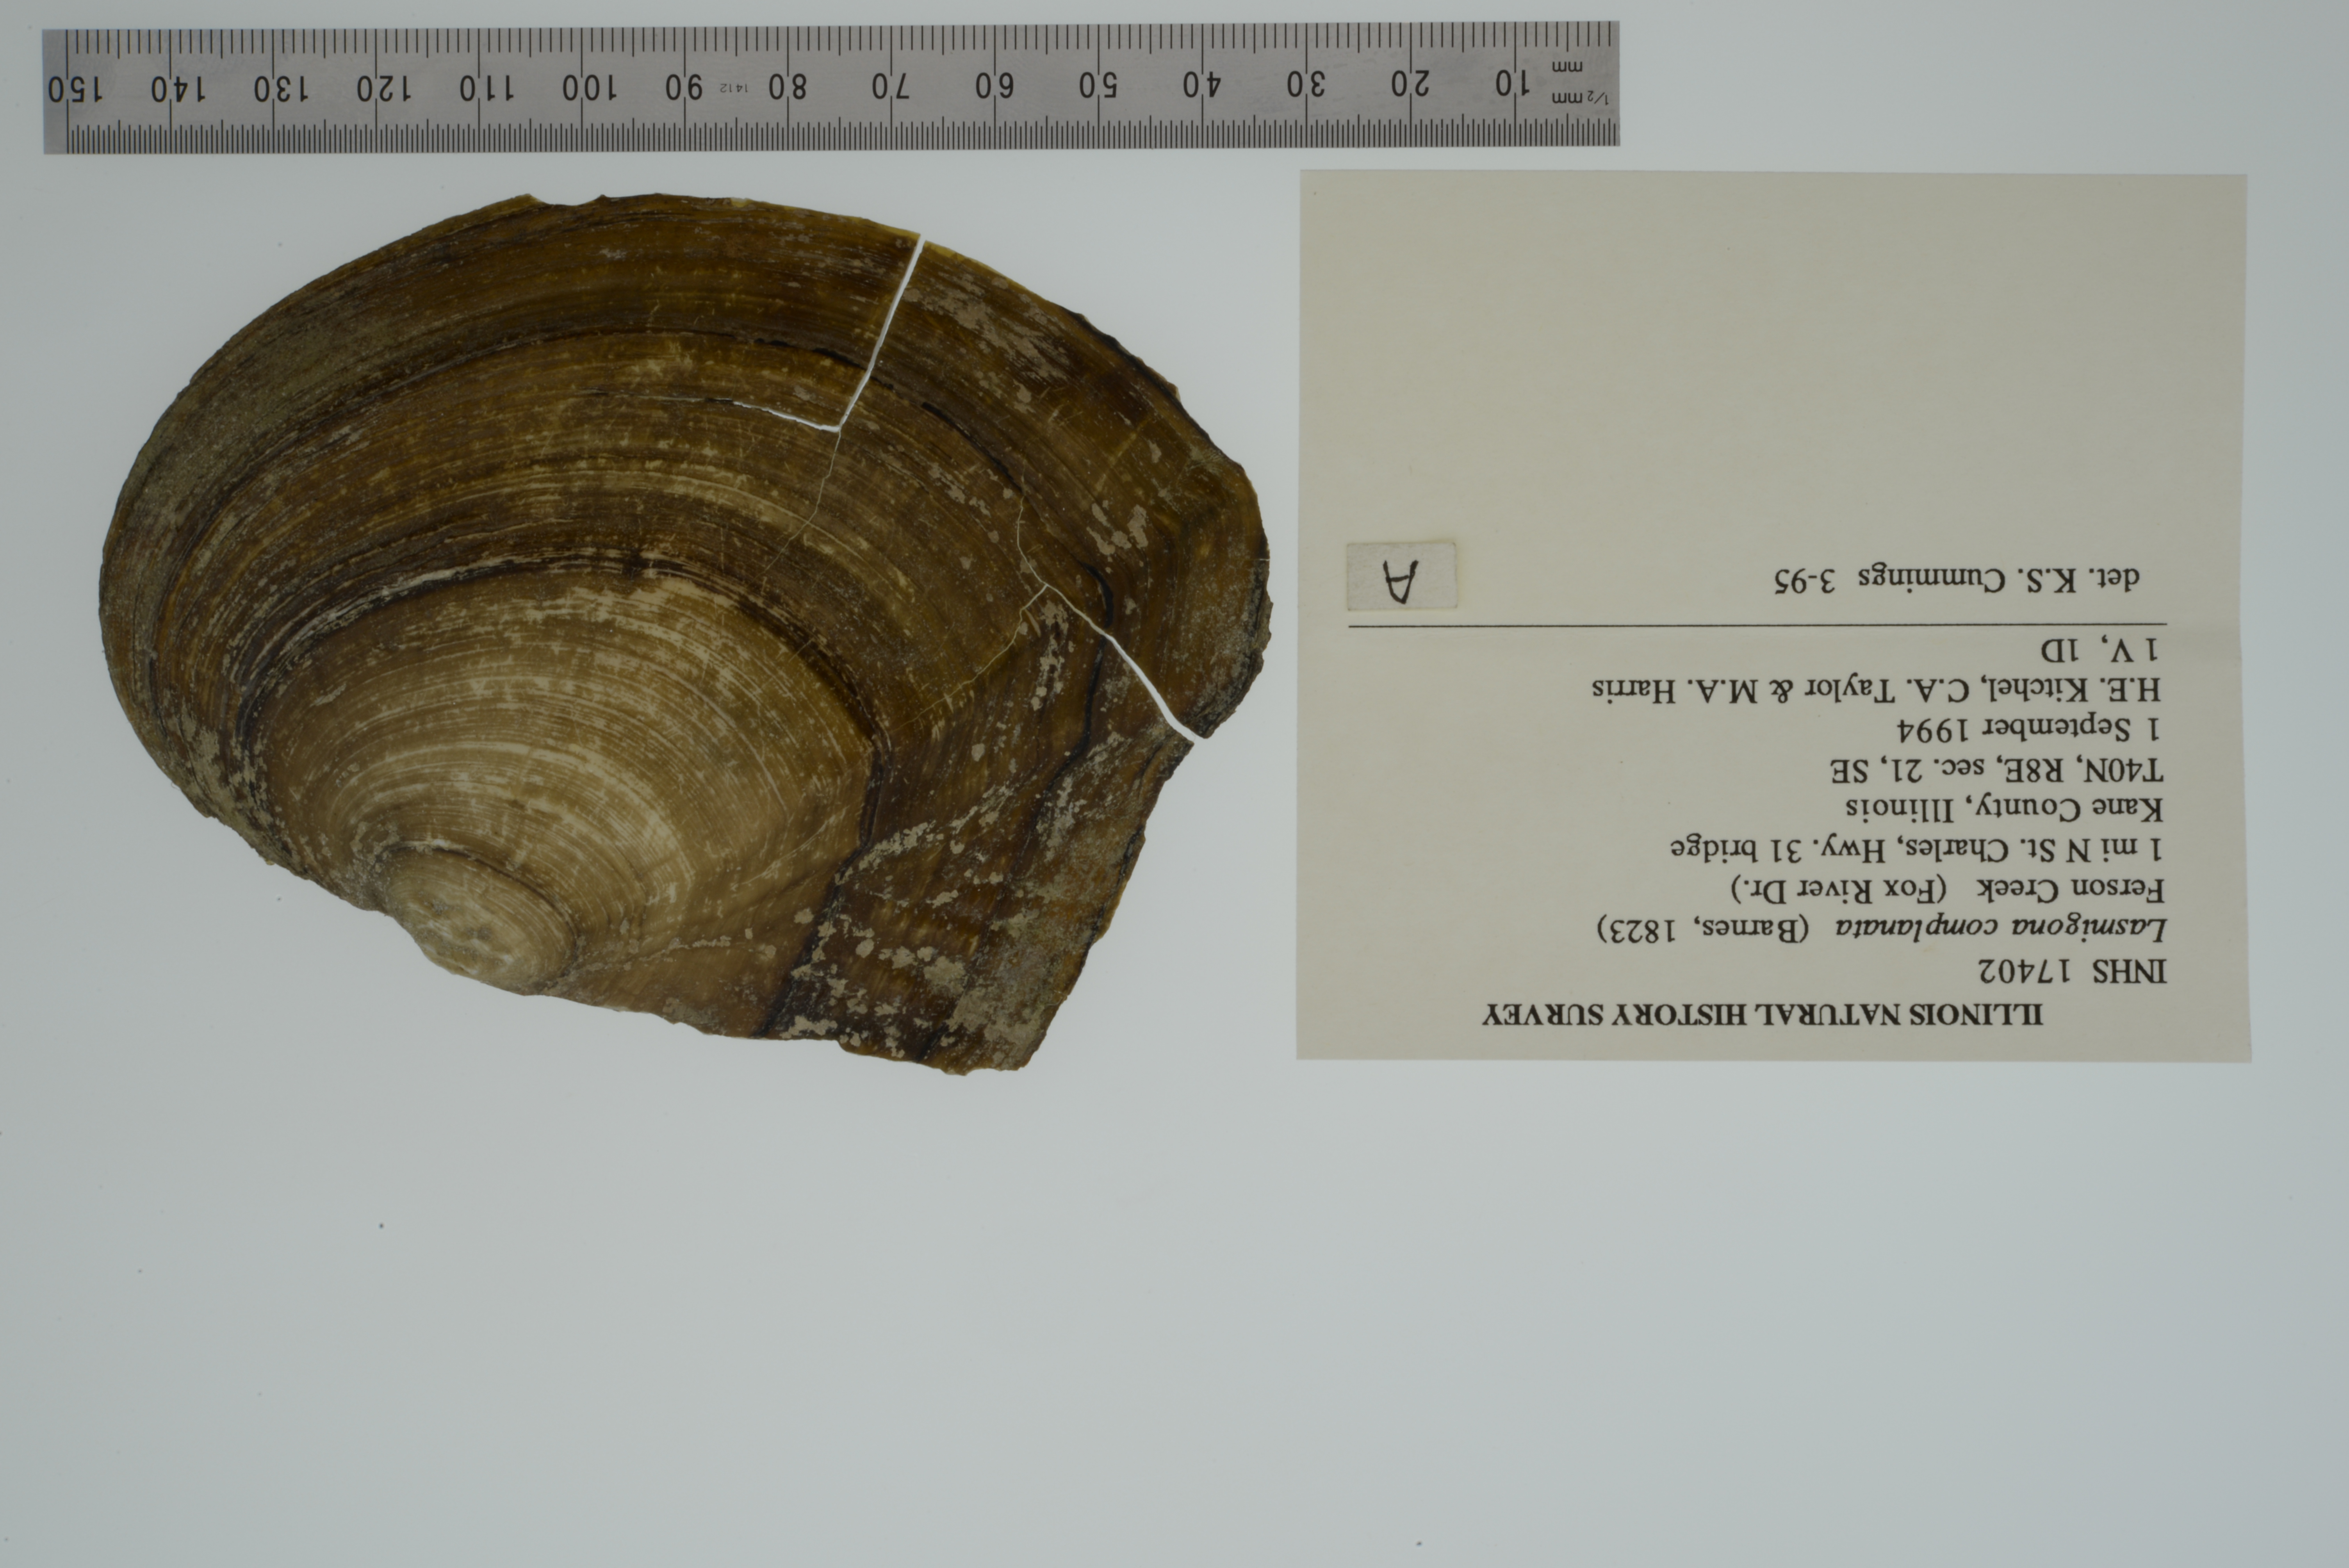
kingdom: Animalia
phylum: Mollusca
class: Bivalvia
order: Unionida
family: Unionidae
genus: Lasmigona
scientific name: Lasmigona complanata
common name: White heelsplitter
